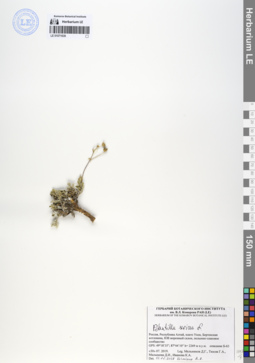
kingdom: Plantae
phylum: Tracheophyta
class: Magnoliopsida
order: Rosales
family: Rosaceae
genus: Potentilla
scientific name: Potentilla sericea
